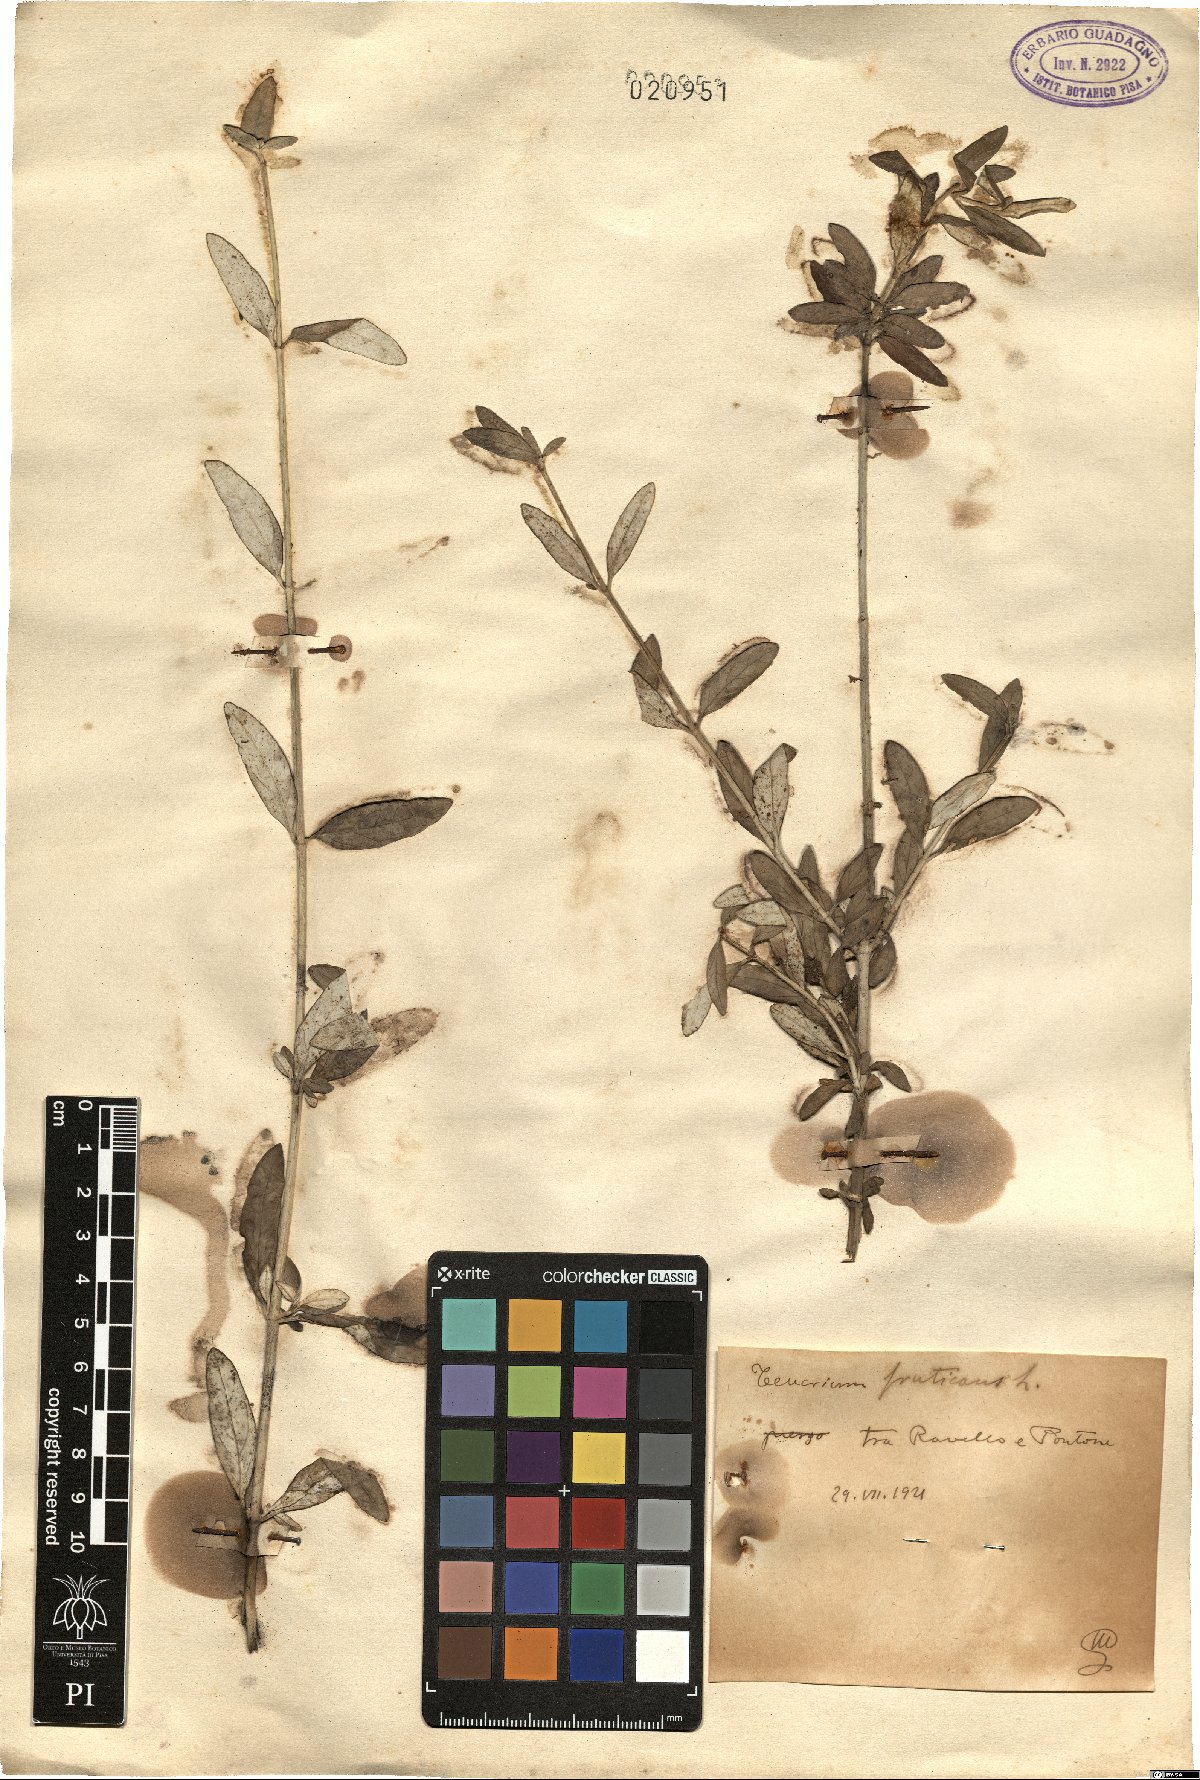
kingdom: Plantae
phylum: Tracheophyta
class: Magnoliopsida
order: Lamiales
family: Lamiaceae
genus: Teucrium
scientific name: Teucrium fruticans
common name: Shrubby germander
